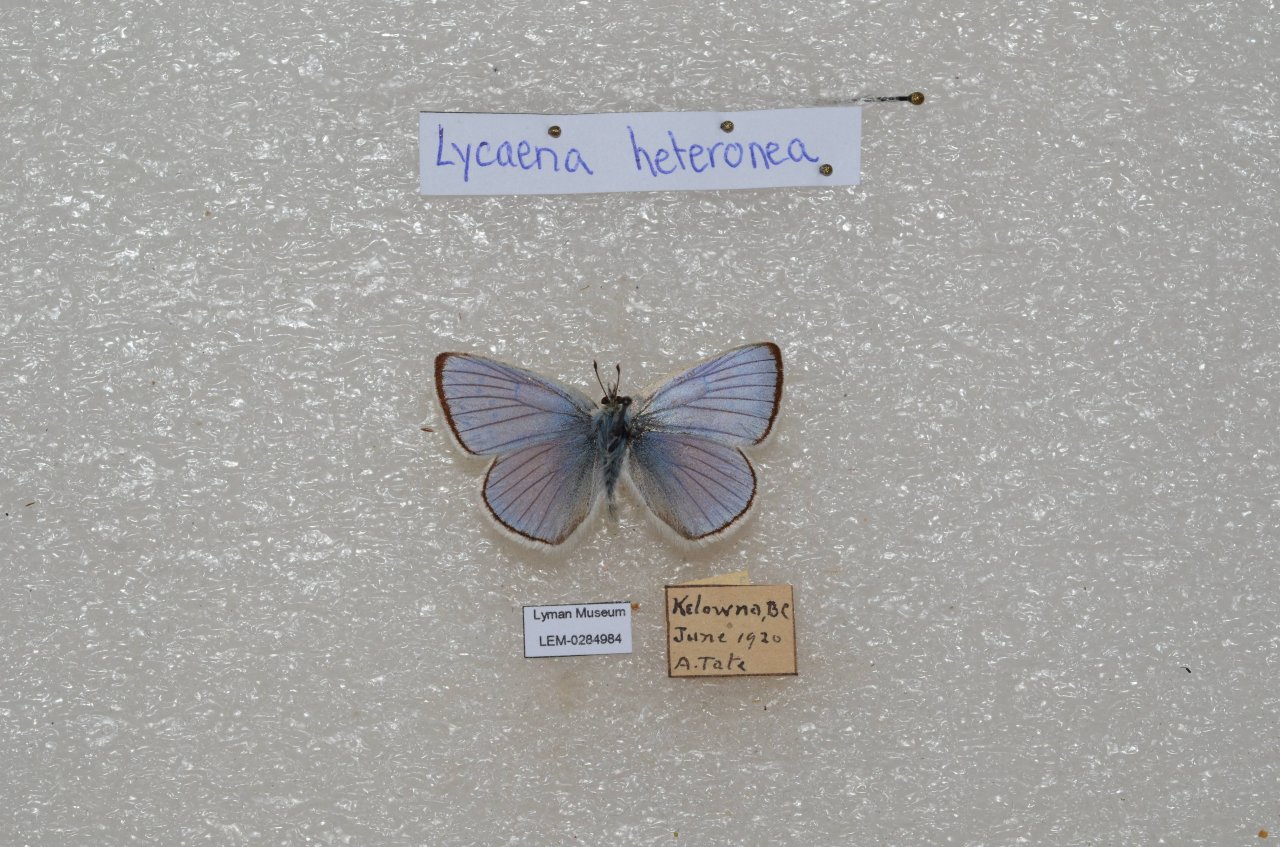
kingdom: Animalia
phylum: Arthropoda
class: Insecta
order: Lepidoptera
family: Lycaenidae
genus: Lycaena
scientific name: Lycaena heteronea
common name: Blue Copper
